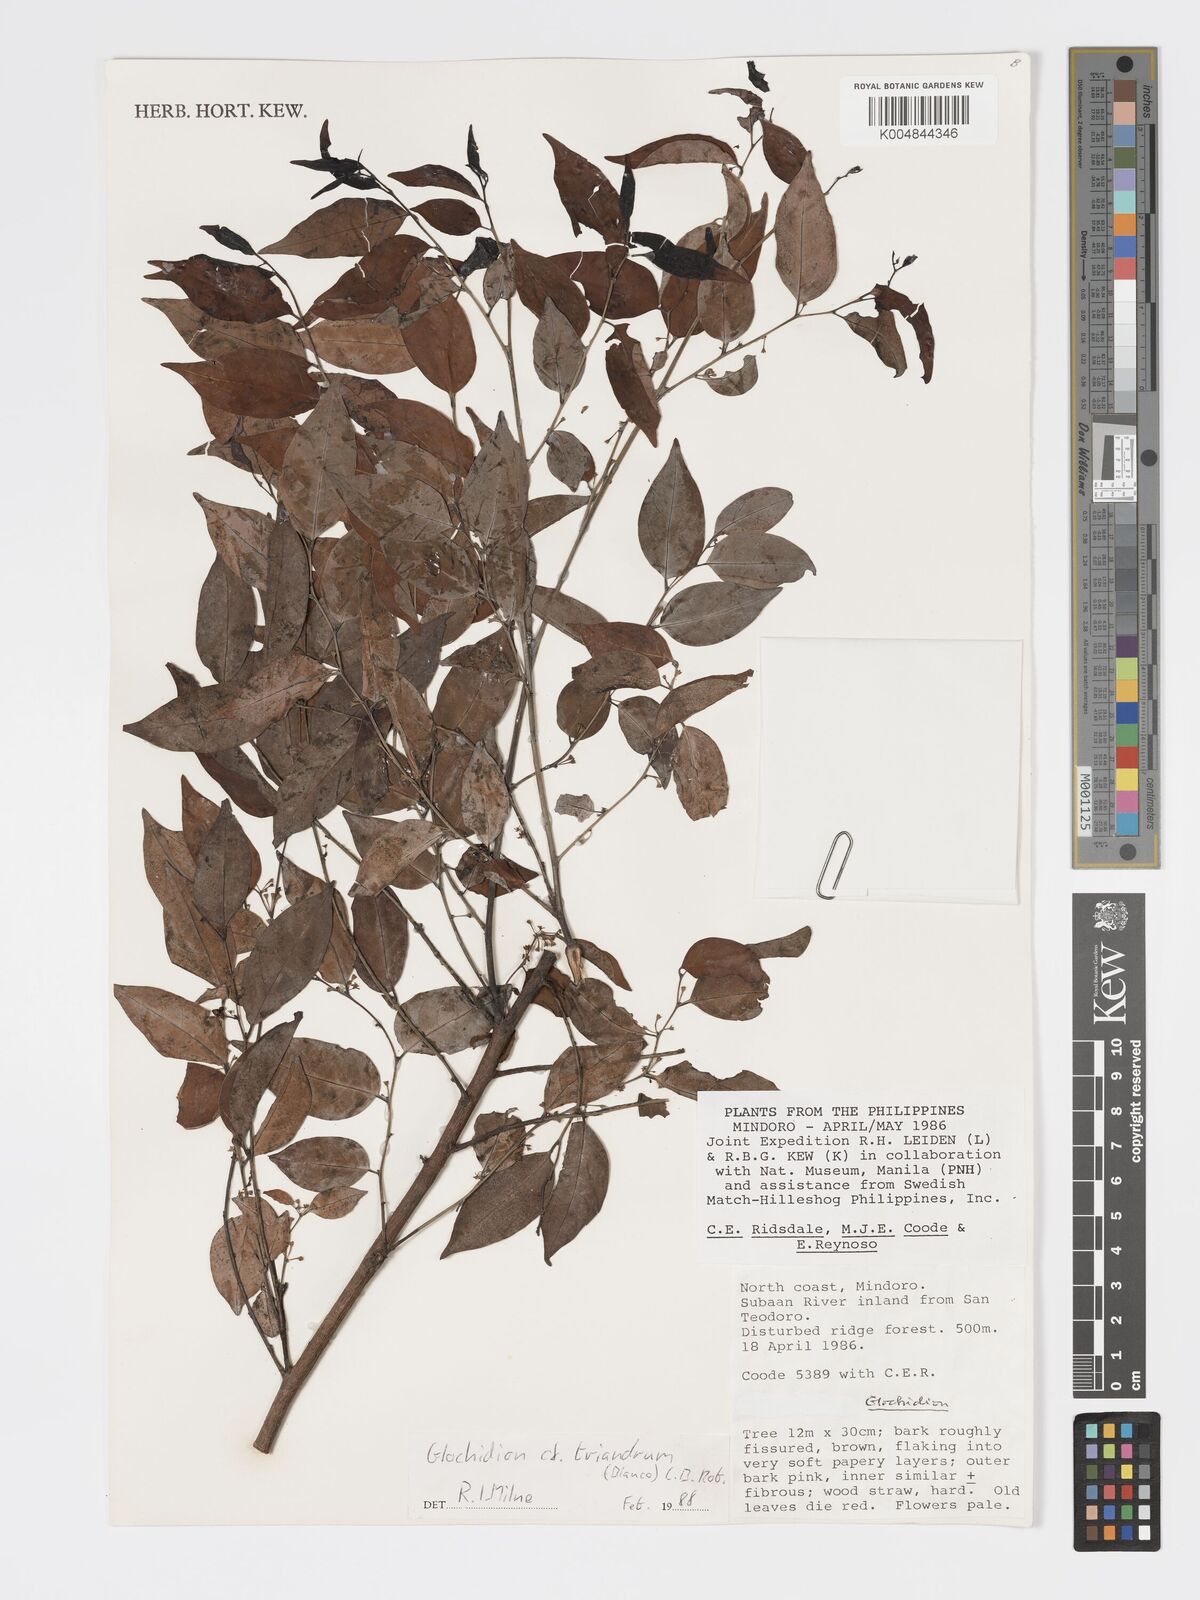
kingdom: Plantae
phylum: Tracheophyta
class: Magnoliopsida
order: Malpighiales
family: Phyllanthaceae
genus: Glochidion
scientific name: Glochidion triandrum
